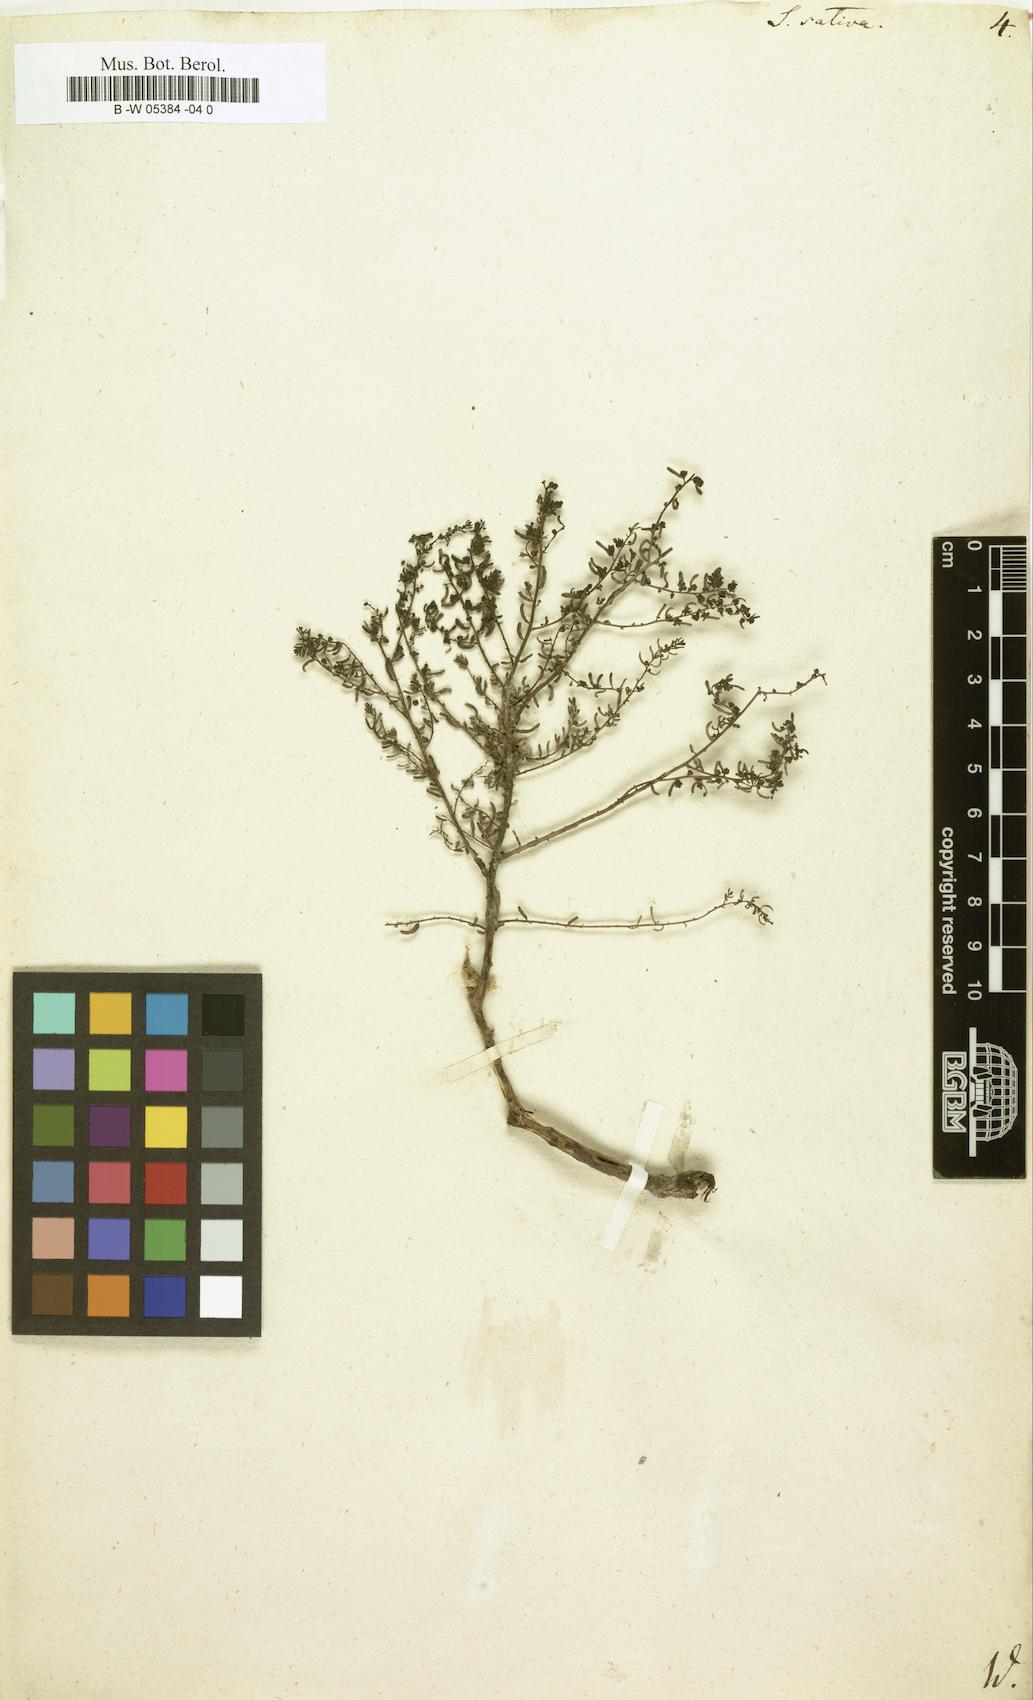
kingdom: Plantae
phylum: Tracheophyta
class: Magnoliopsida
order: Caryophyllales
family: Amaranthaceae
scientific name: Amaranthaceae
